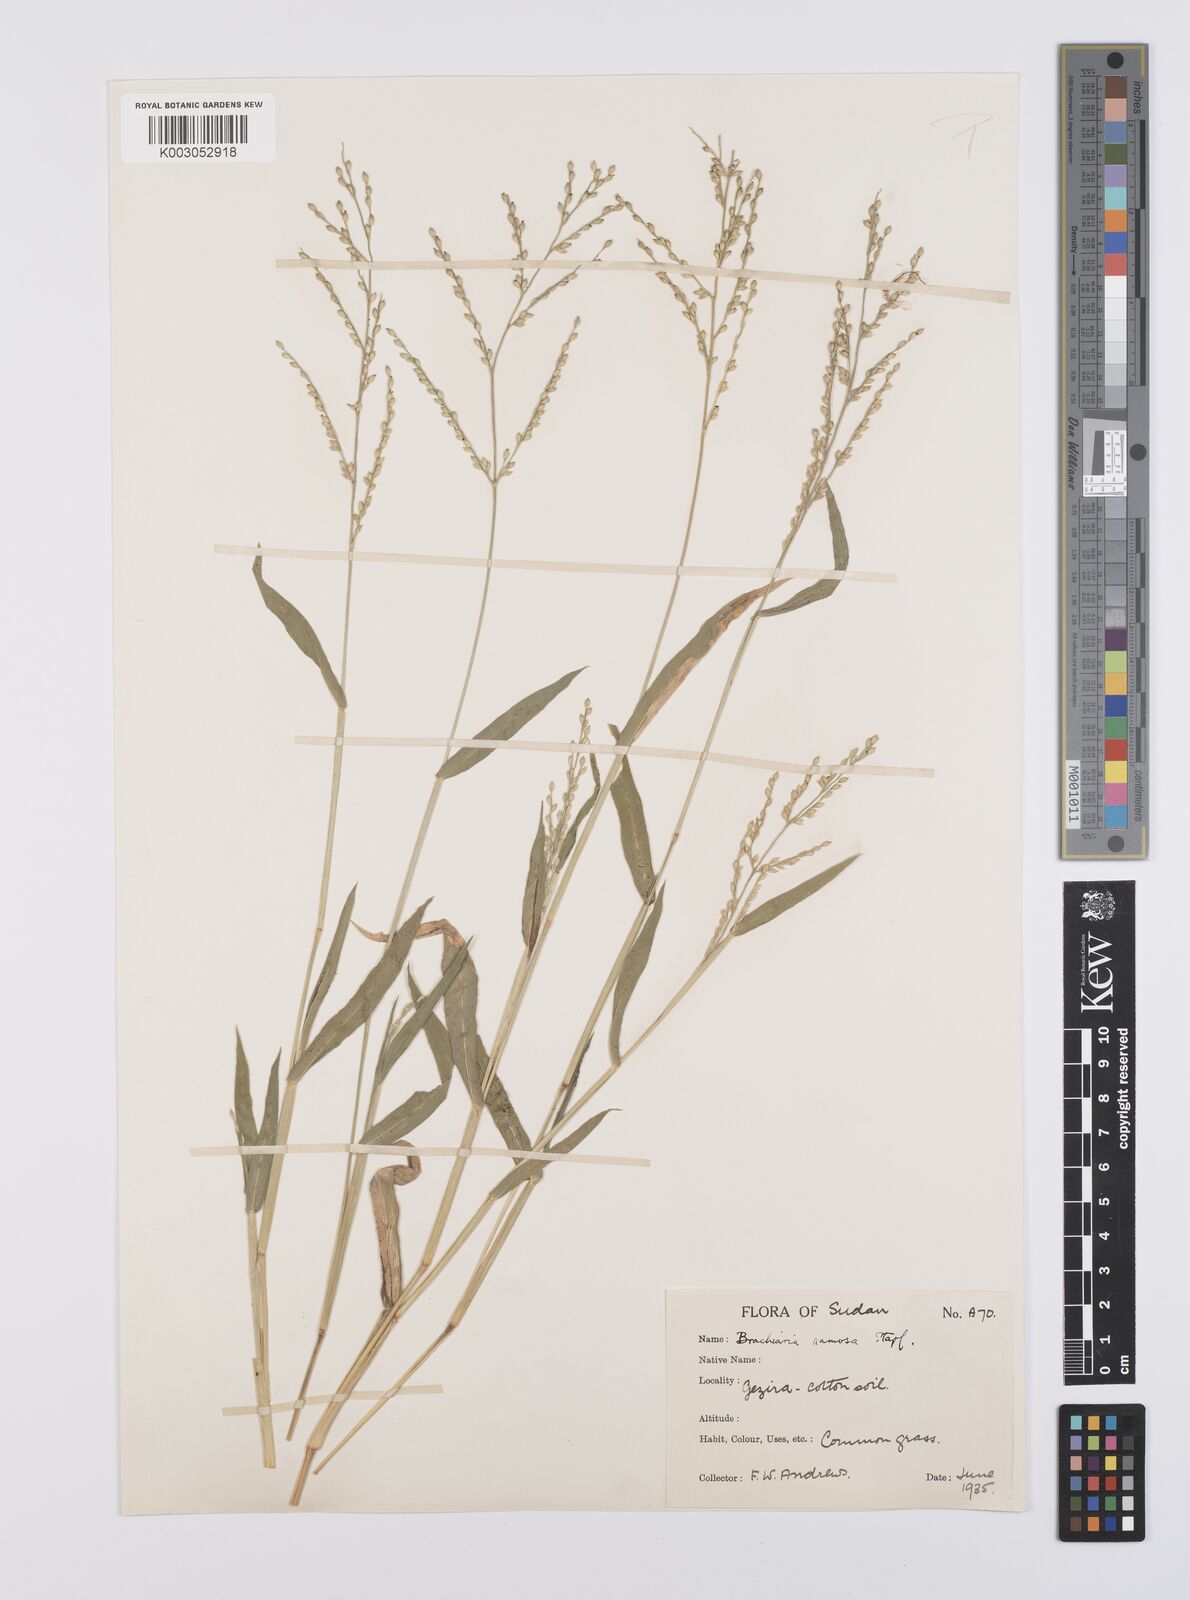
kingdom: Plantae
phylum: Tracheophyta
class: Liliopsida
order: Poales
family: Poaceae
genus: Urochloa
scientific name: Urochloa ramosa
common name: Browntop millet
